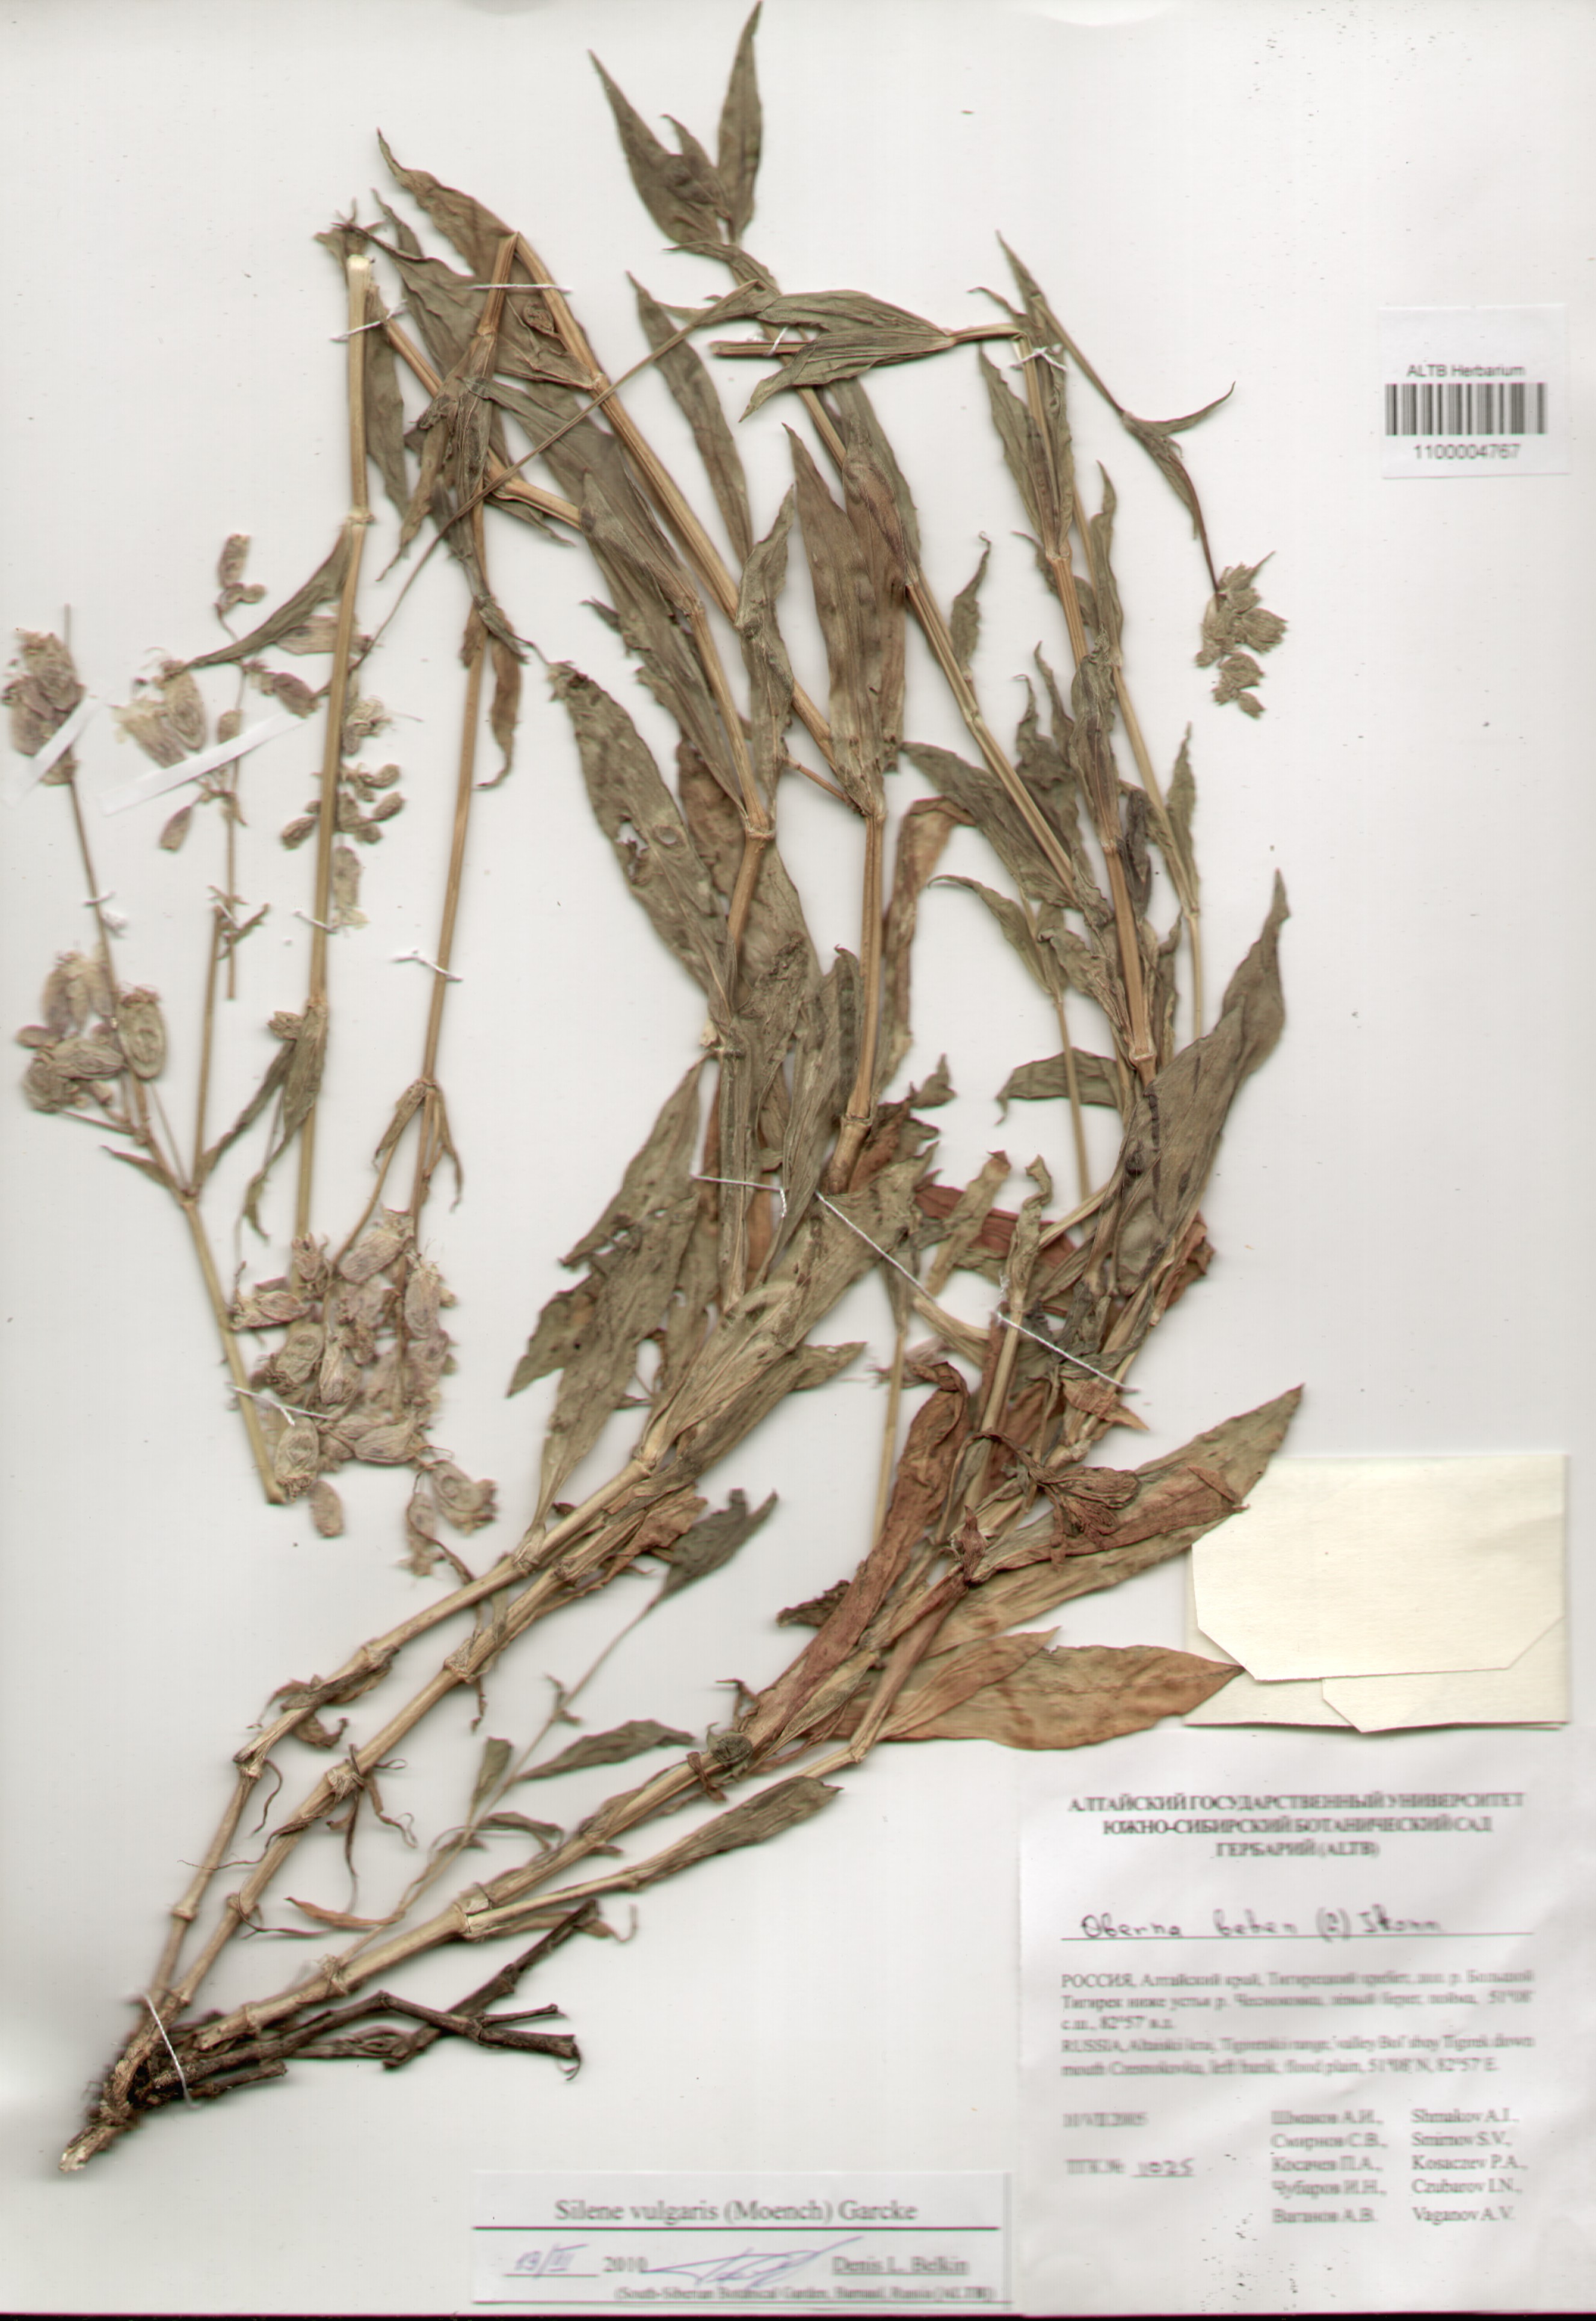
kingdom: Plantae
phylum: Tracheophyta
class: Magnoliopsida
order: Caryophyllales
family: Caryophyllaceae
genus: Silene
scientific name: Silene vulgaris
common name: Bladder campion
